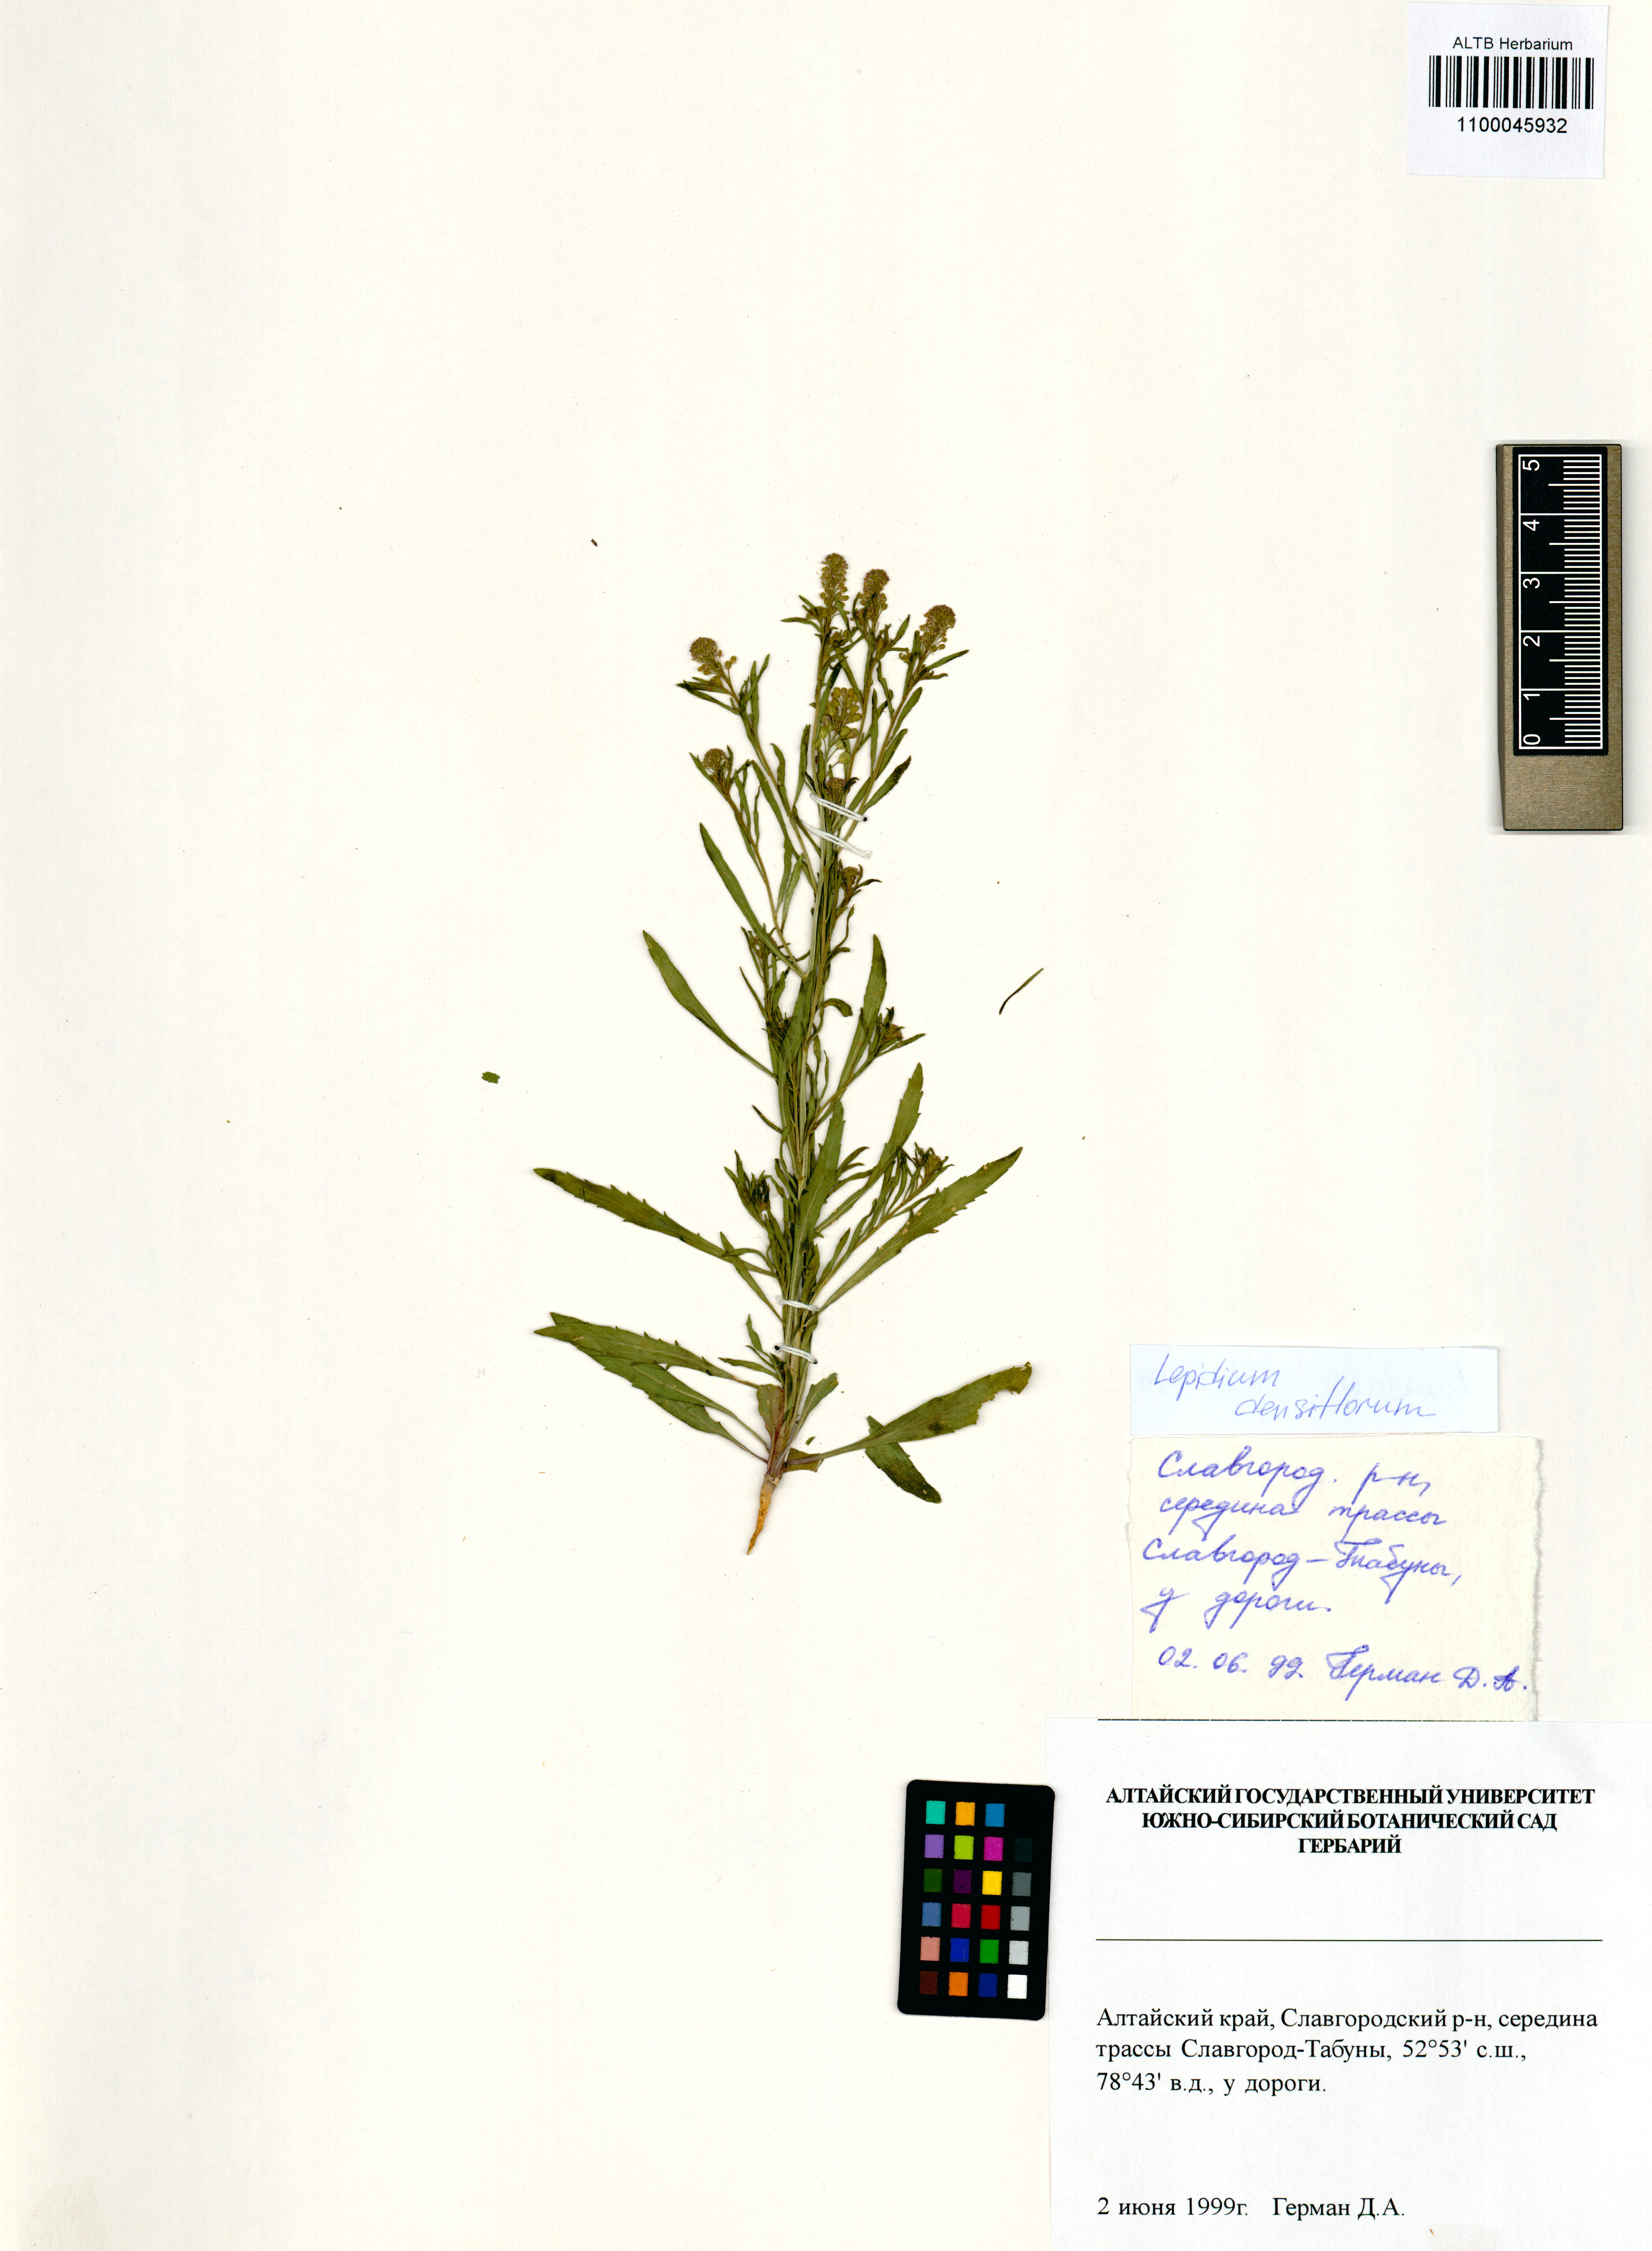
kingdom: Plantae
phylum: Tracheophyta
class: Magnoliopsida
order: Brassicales
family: Brassicaceae
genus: Lepidium
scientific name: Lepidium densiflorum
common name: Miner's pepperwort
